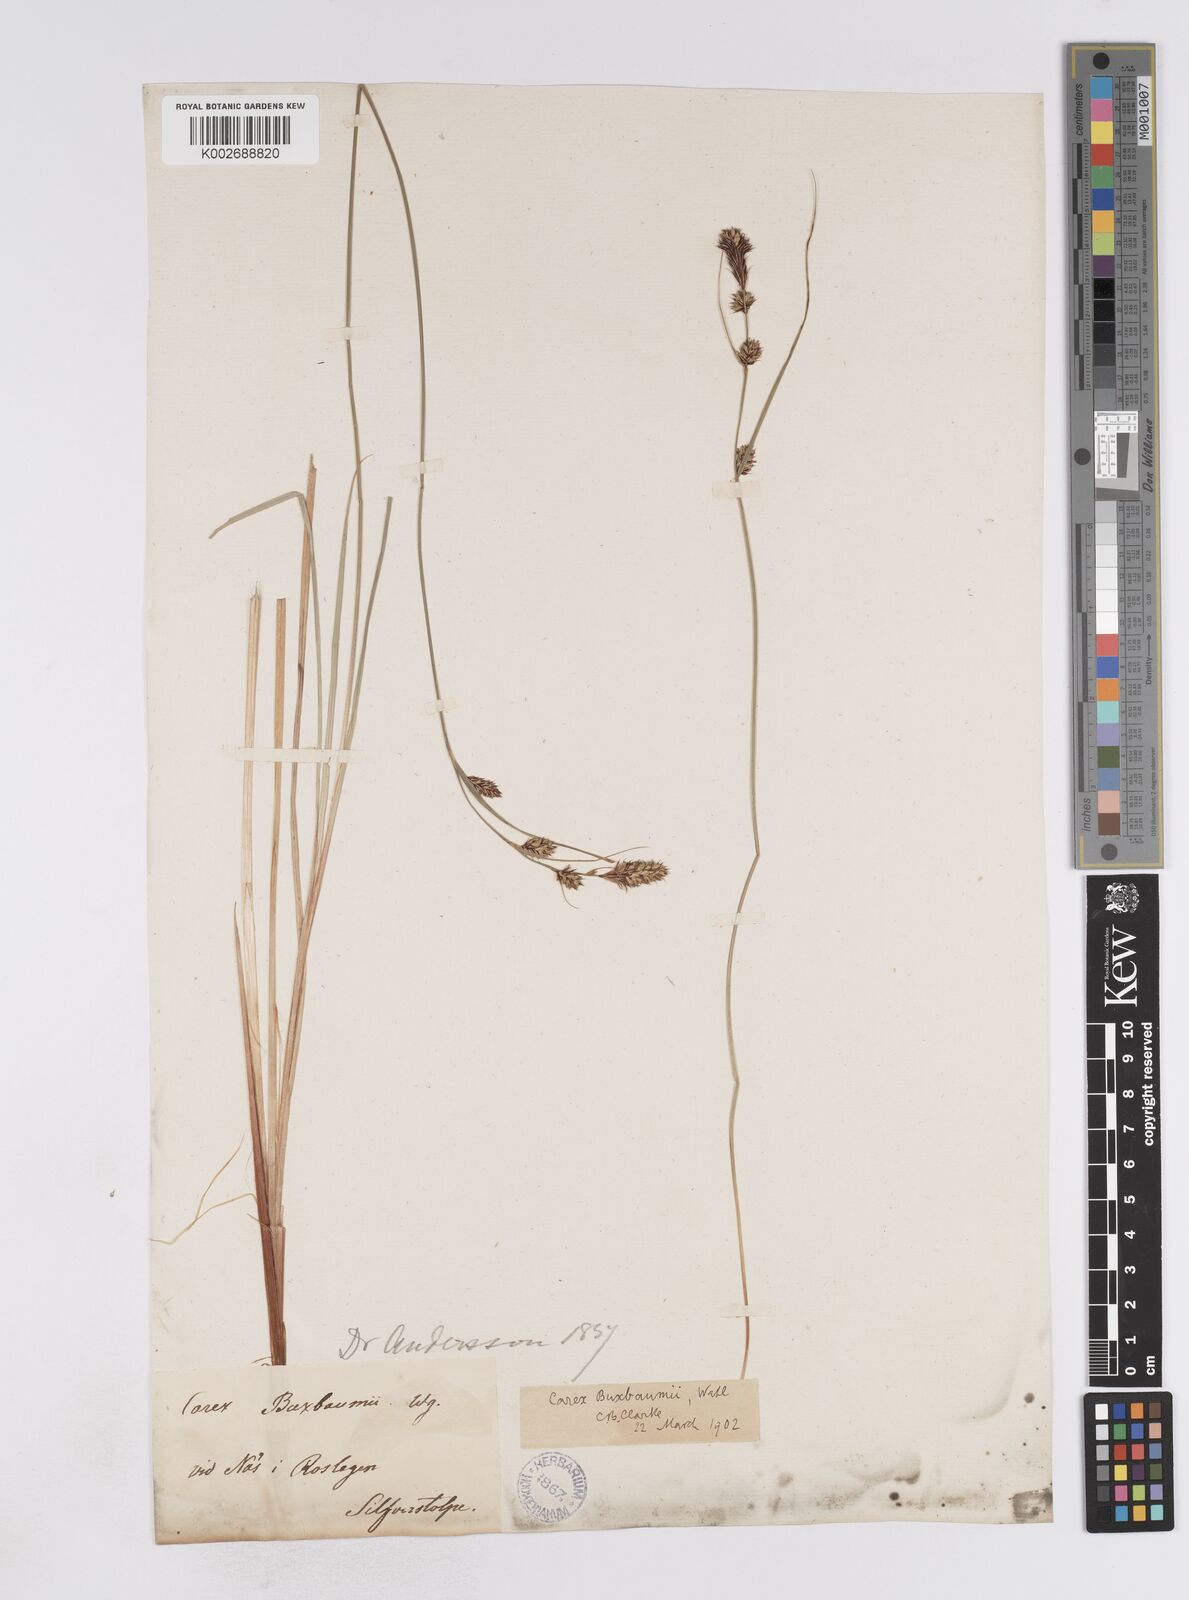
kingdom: Plantae
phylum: Tracheophyta
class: Liliopsida
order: Poales
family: Cyperaceae
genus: Carex
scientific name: Carex buxbaumii
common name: Club sedge
